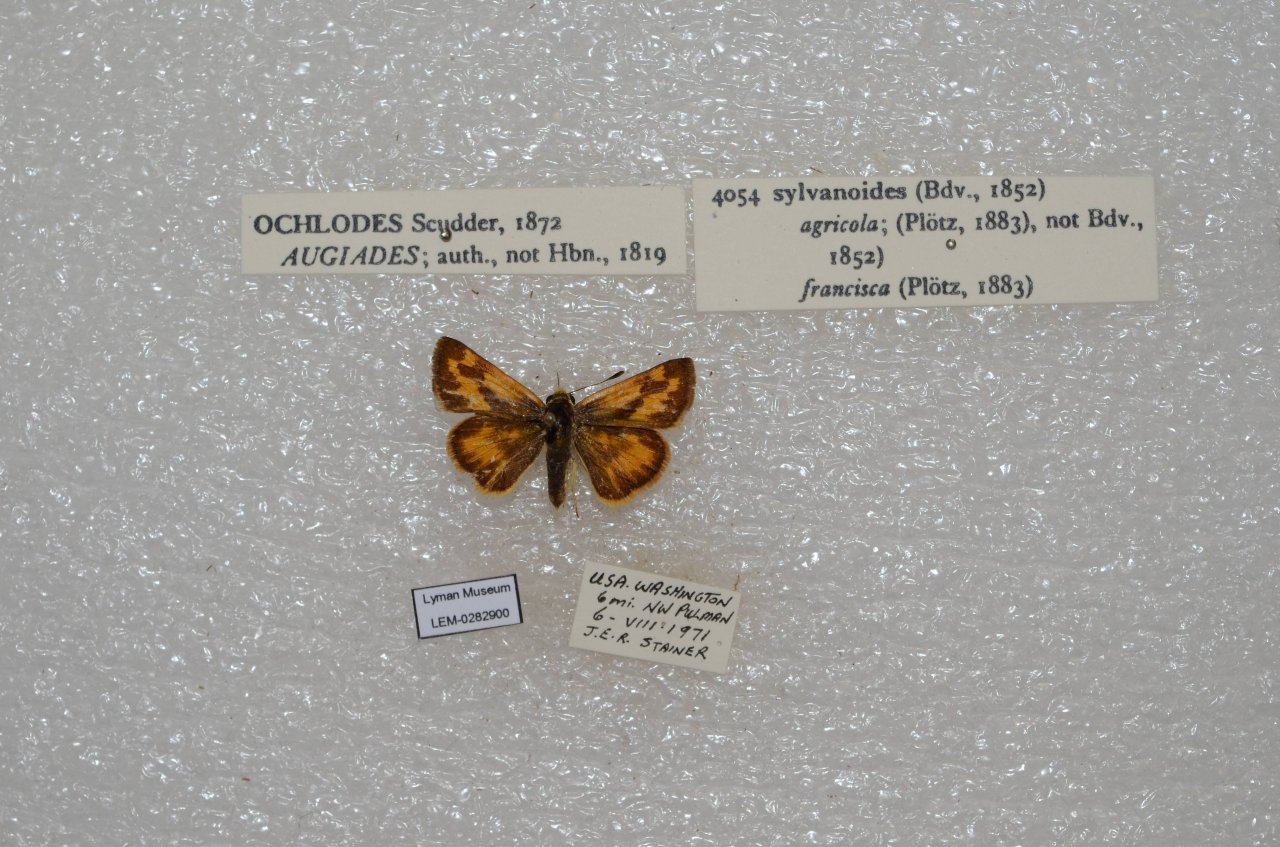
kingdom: Animalia
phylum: Arthropoda
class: Insecta
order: Lepidoptera
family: Hesperiidae
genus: Ochlodes
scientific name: Ochlodes sylvanoides
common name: Woodland Skipper
